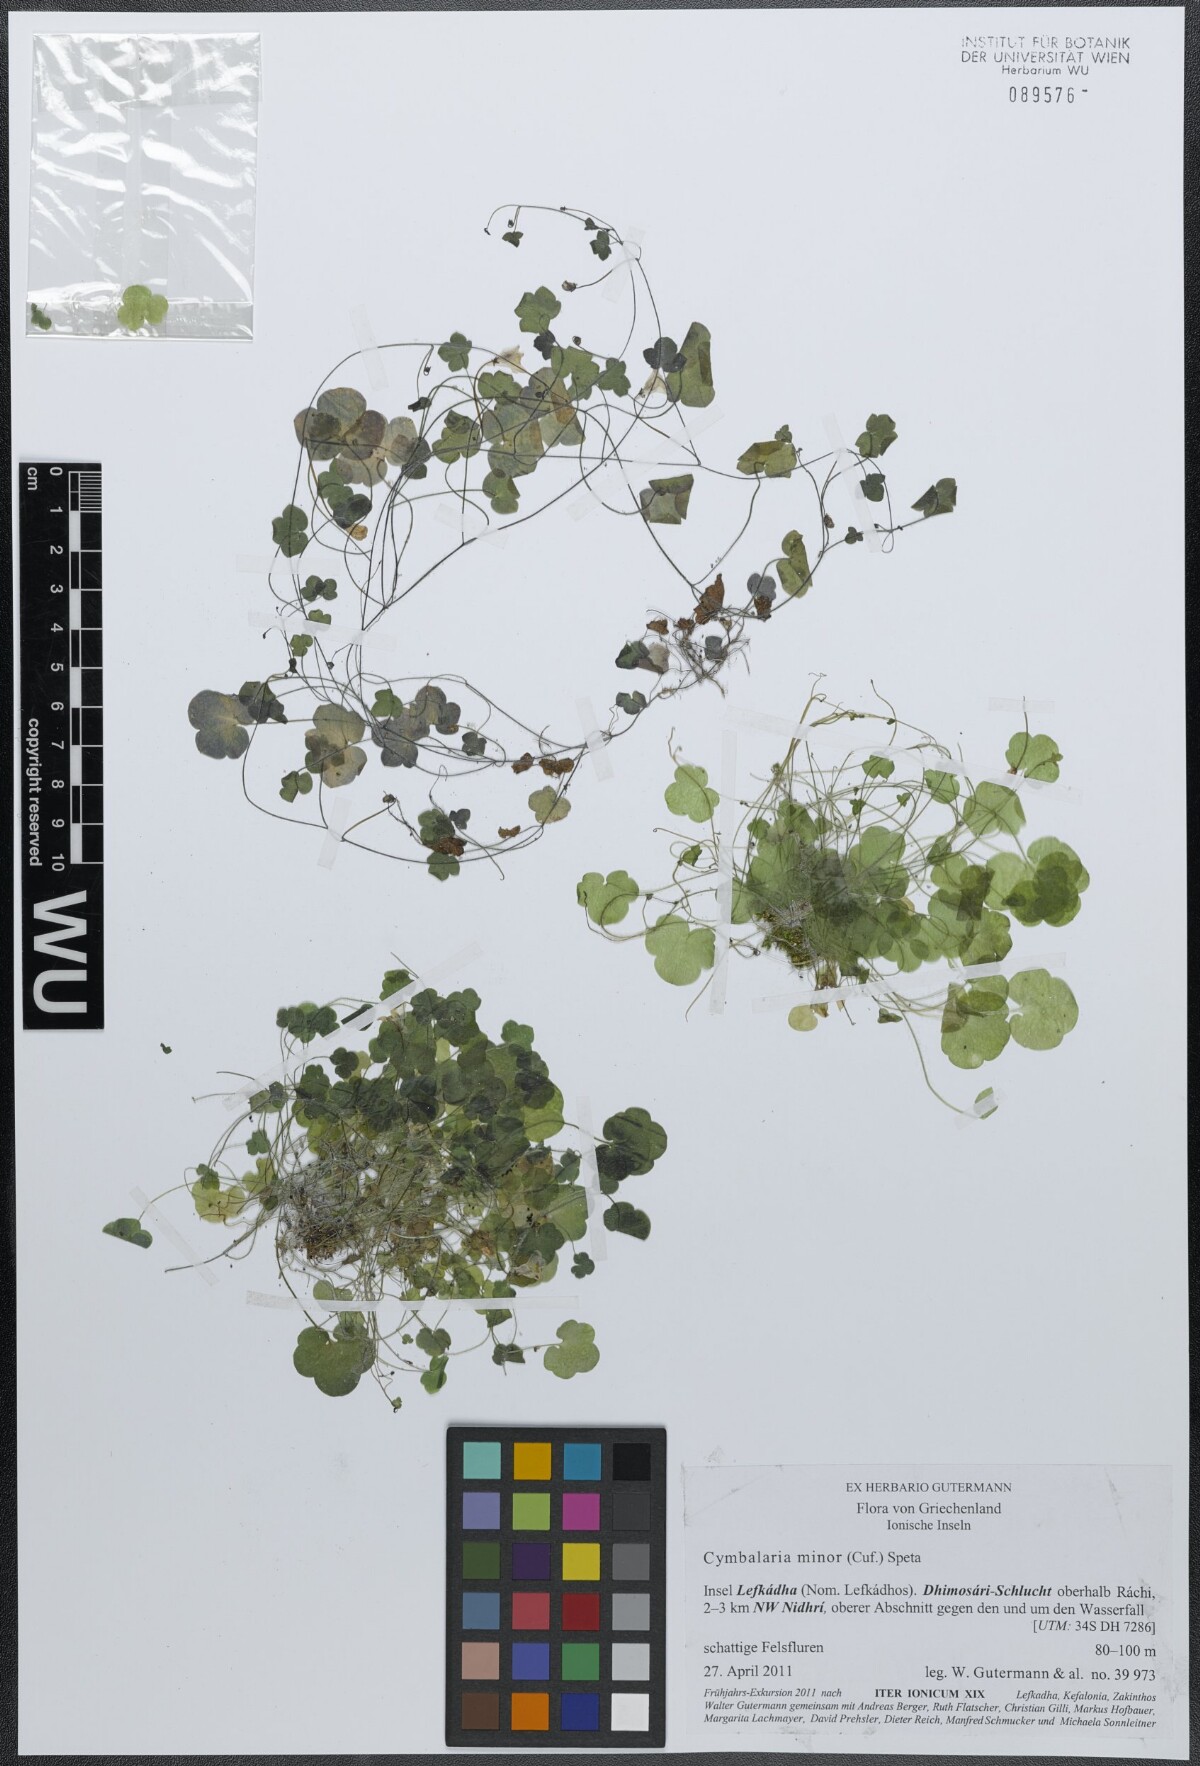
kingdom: Plantae
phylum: Tracheophyta
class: Magnoliopsida
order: Lamiales
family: Plantaginaceae
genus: Cymbalaria
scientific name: Cymbalaria minor
